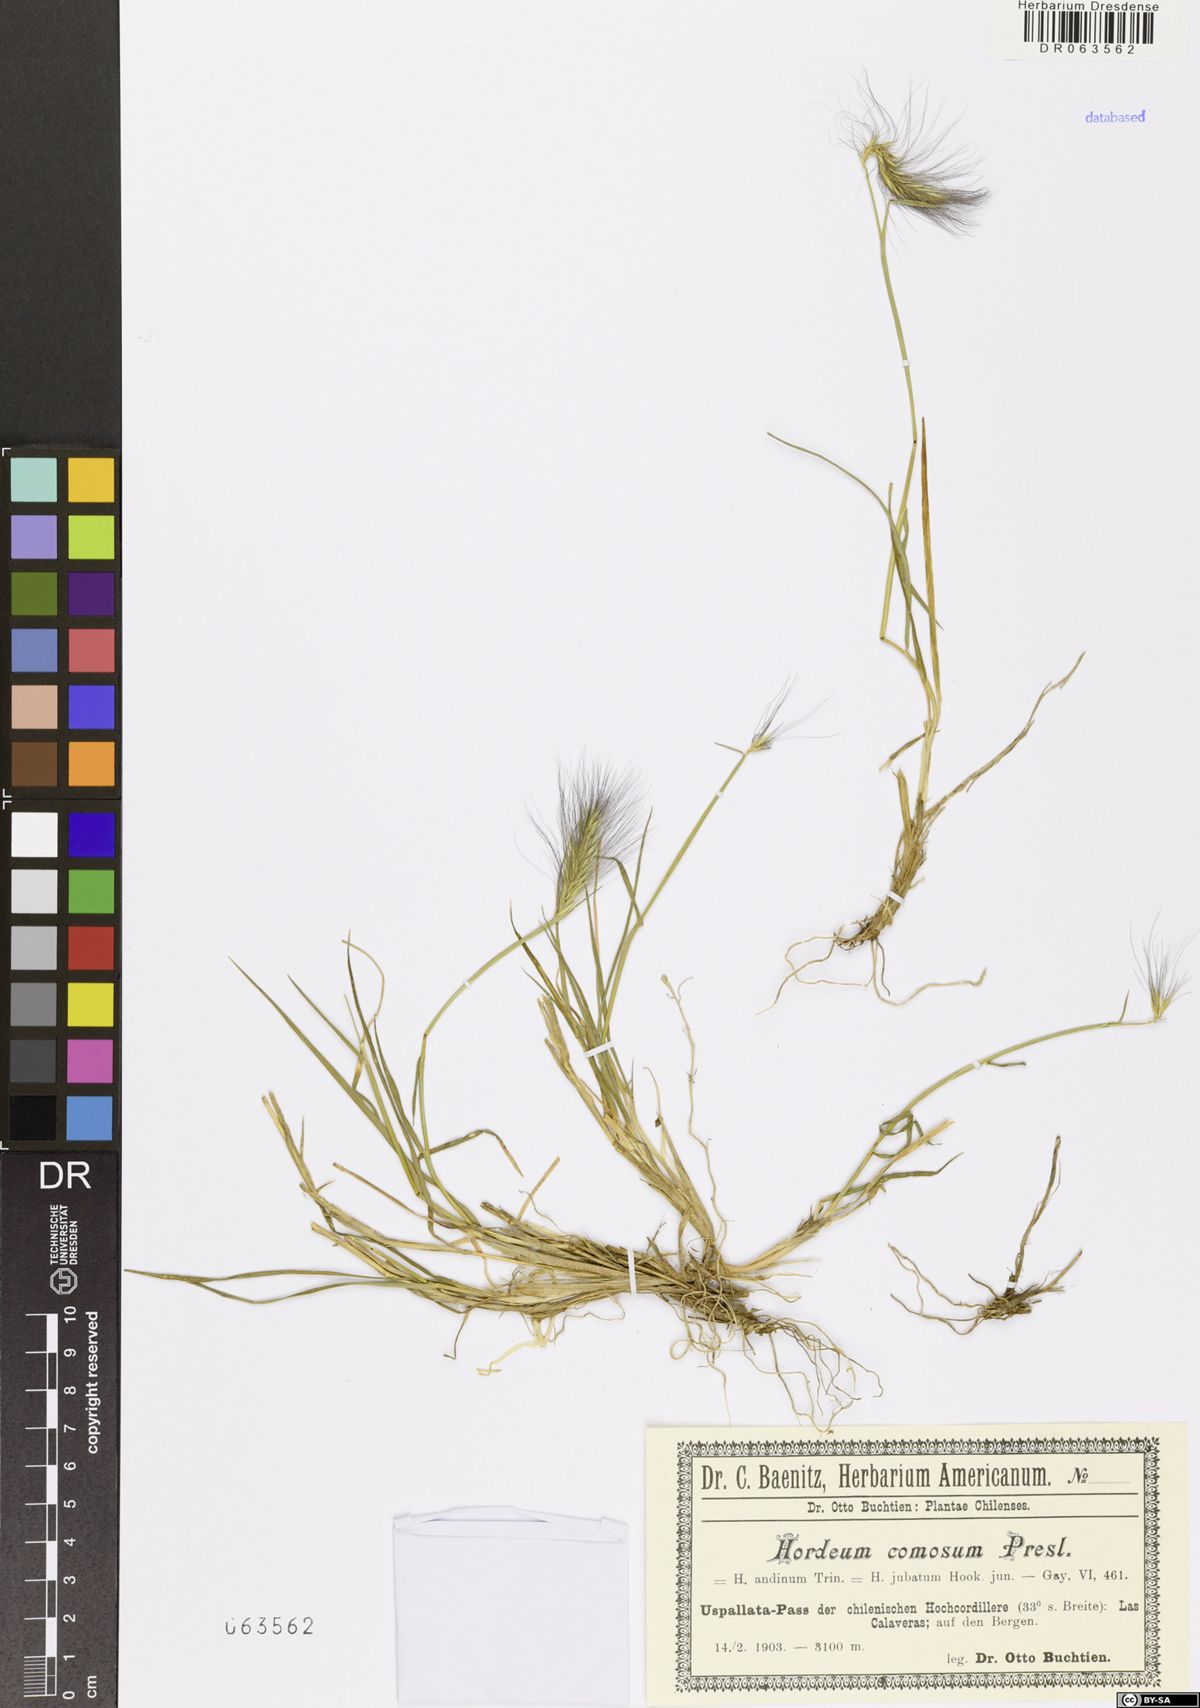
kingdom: Plantae
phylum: Tracheophyta
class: Liliopsida
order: Poales
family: Poaceae
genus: Hordeum
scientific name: Hordeum comosum
